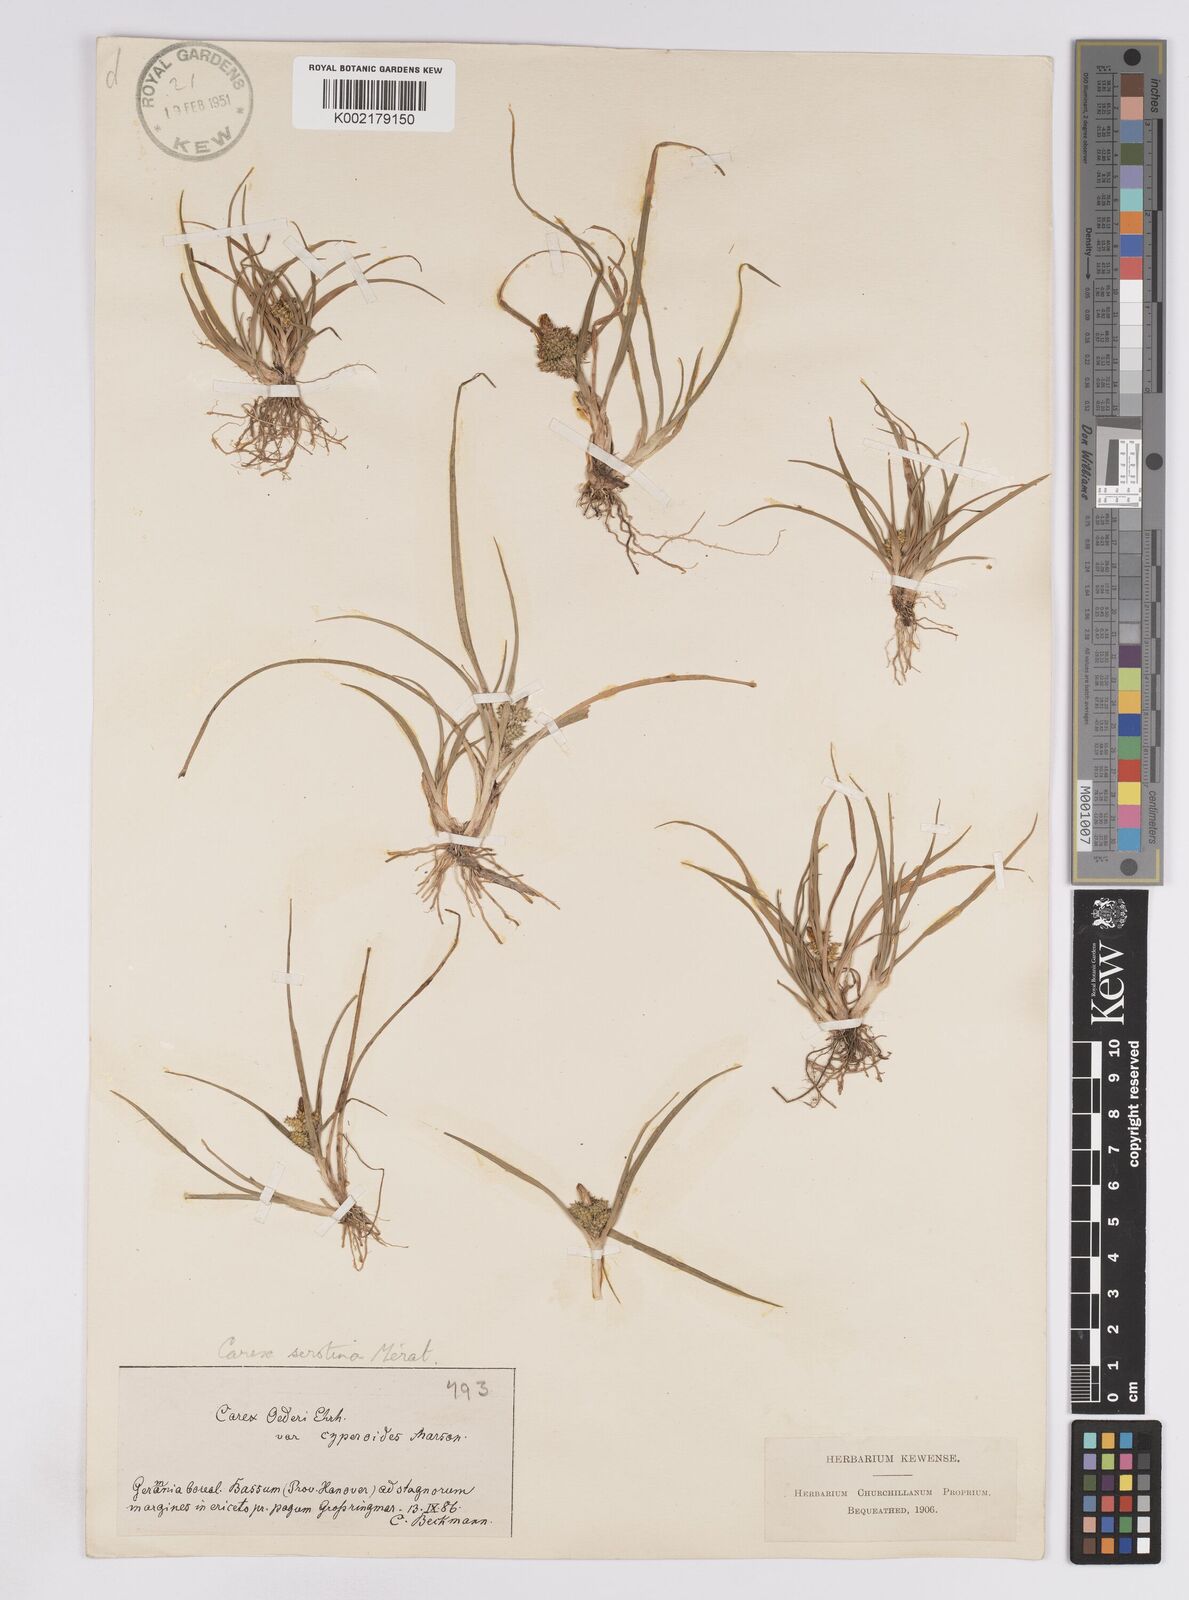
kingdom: Plantae
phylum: Tracheophyta
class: Liliopsida
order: Poales
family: Cyperaceae
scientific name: Cyperaceae
